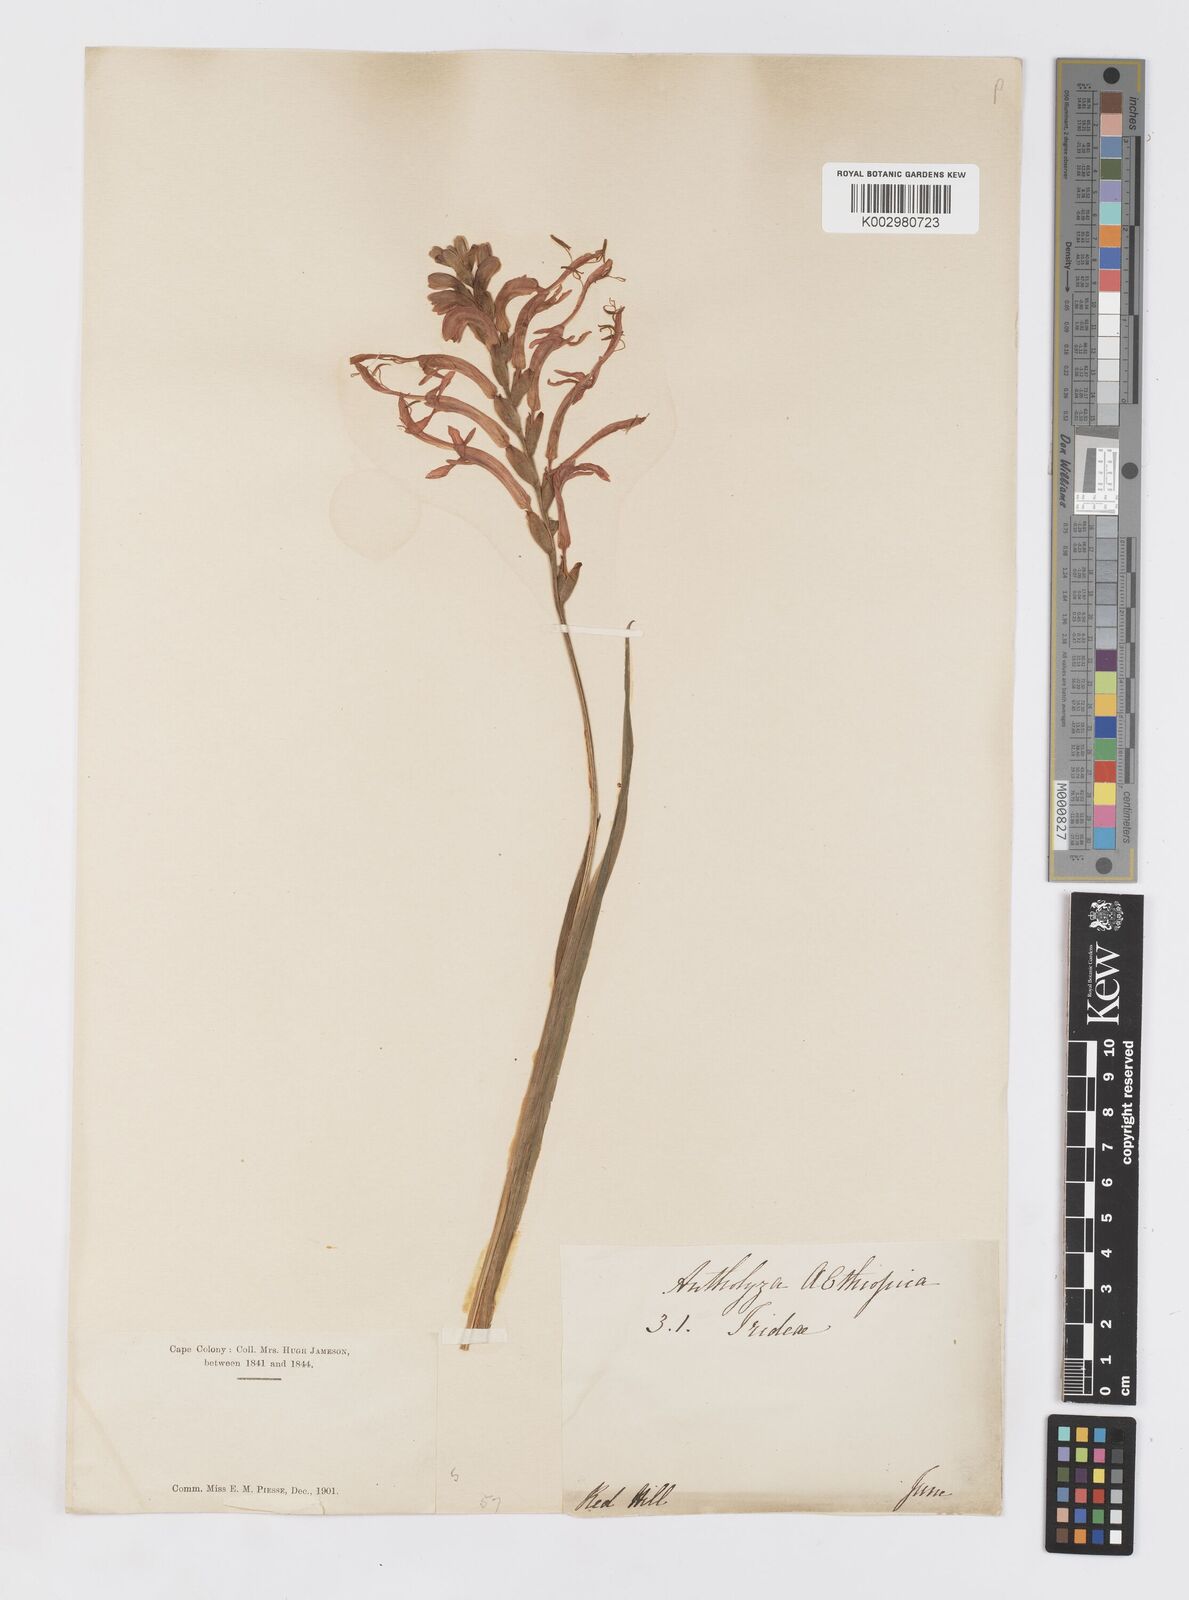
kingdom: Plantae
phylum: Tracheophyta
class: Liliopsida
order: Asparagales
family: Iridaceae
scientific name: Iridaceae
